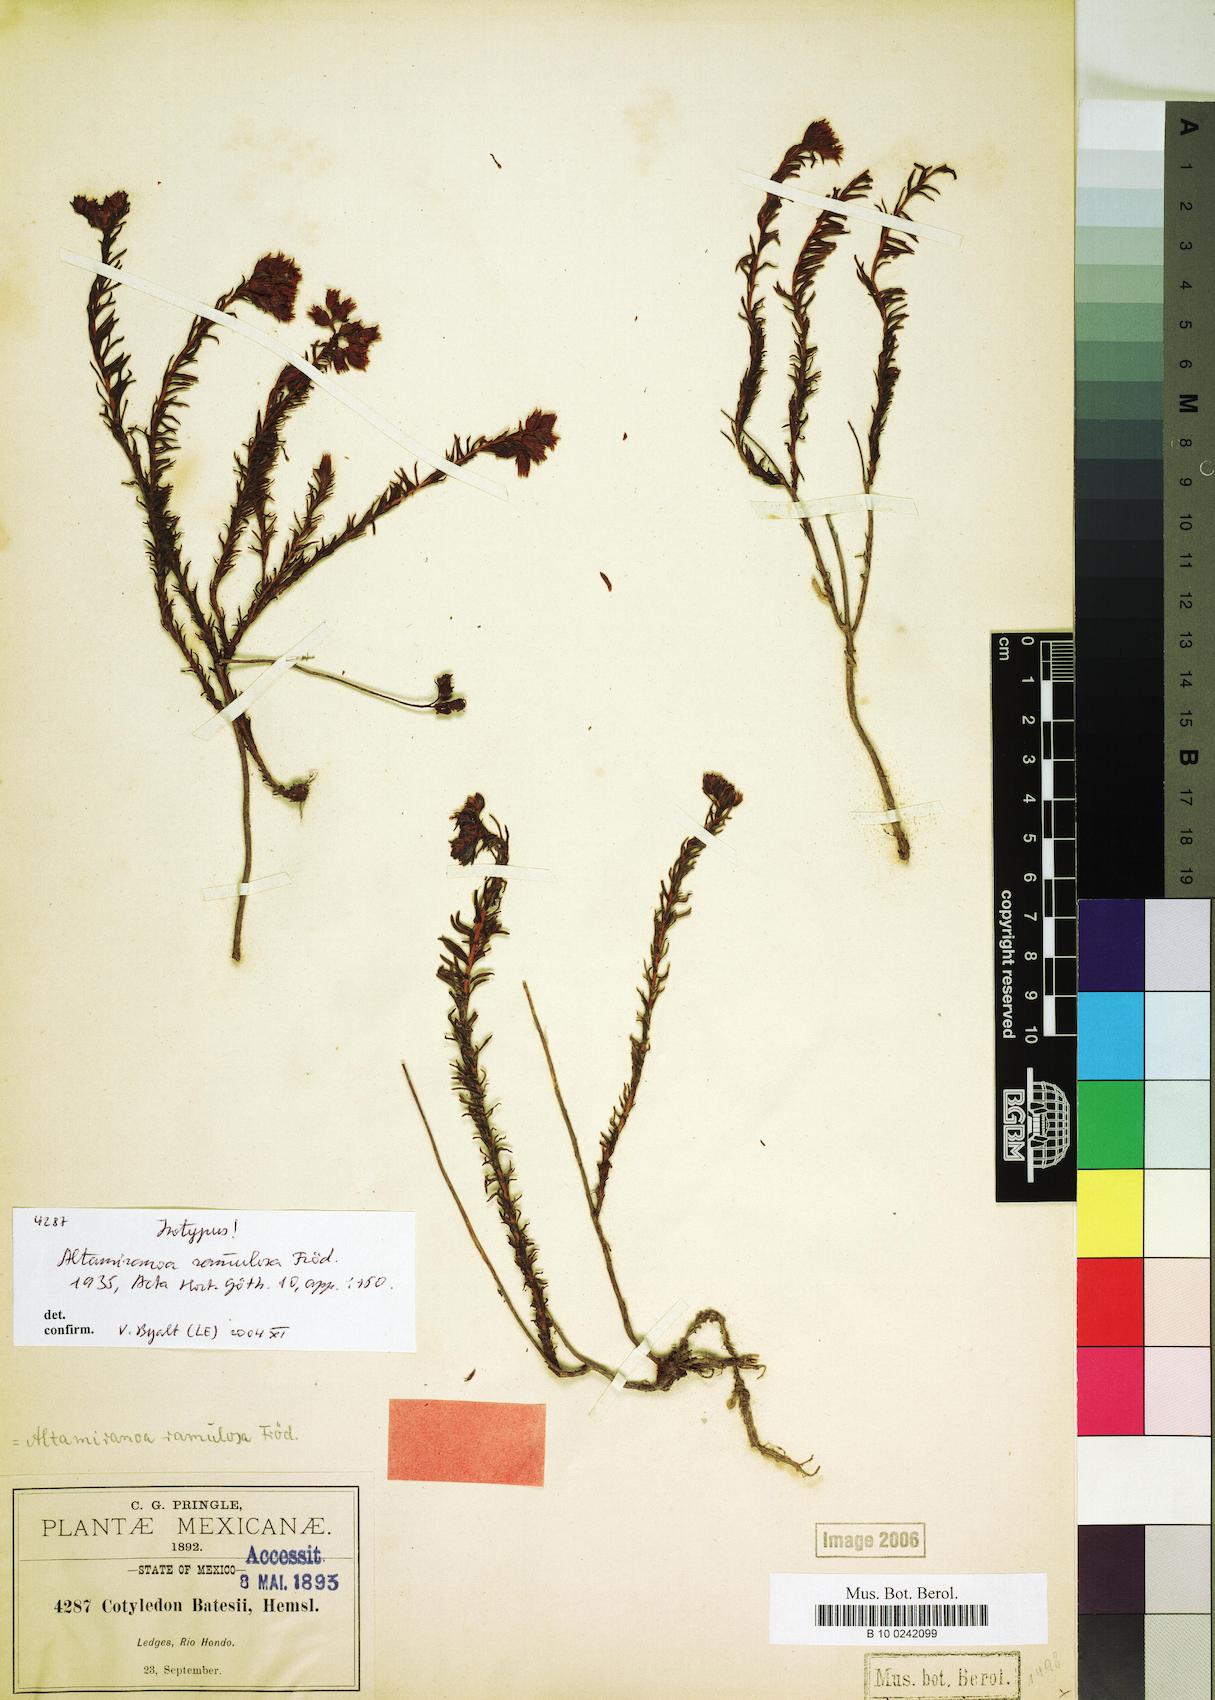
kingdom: Plantae
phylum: Tracheophyta
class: Magnoliopsida
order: Saxifragales
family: Crassulaceae
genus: Sedum
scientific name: Sedum goldmanii
